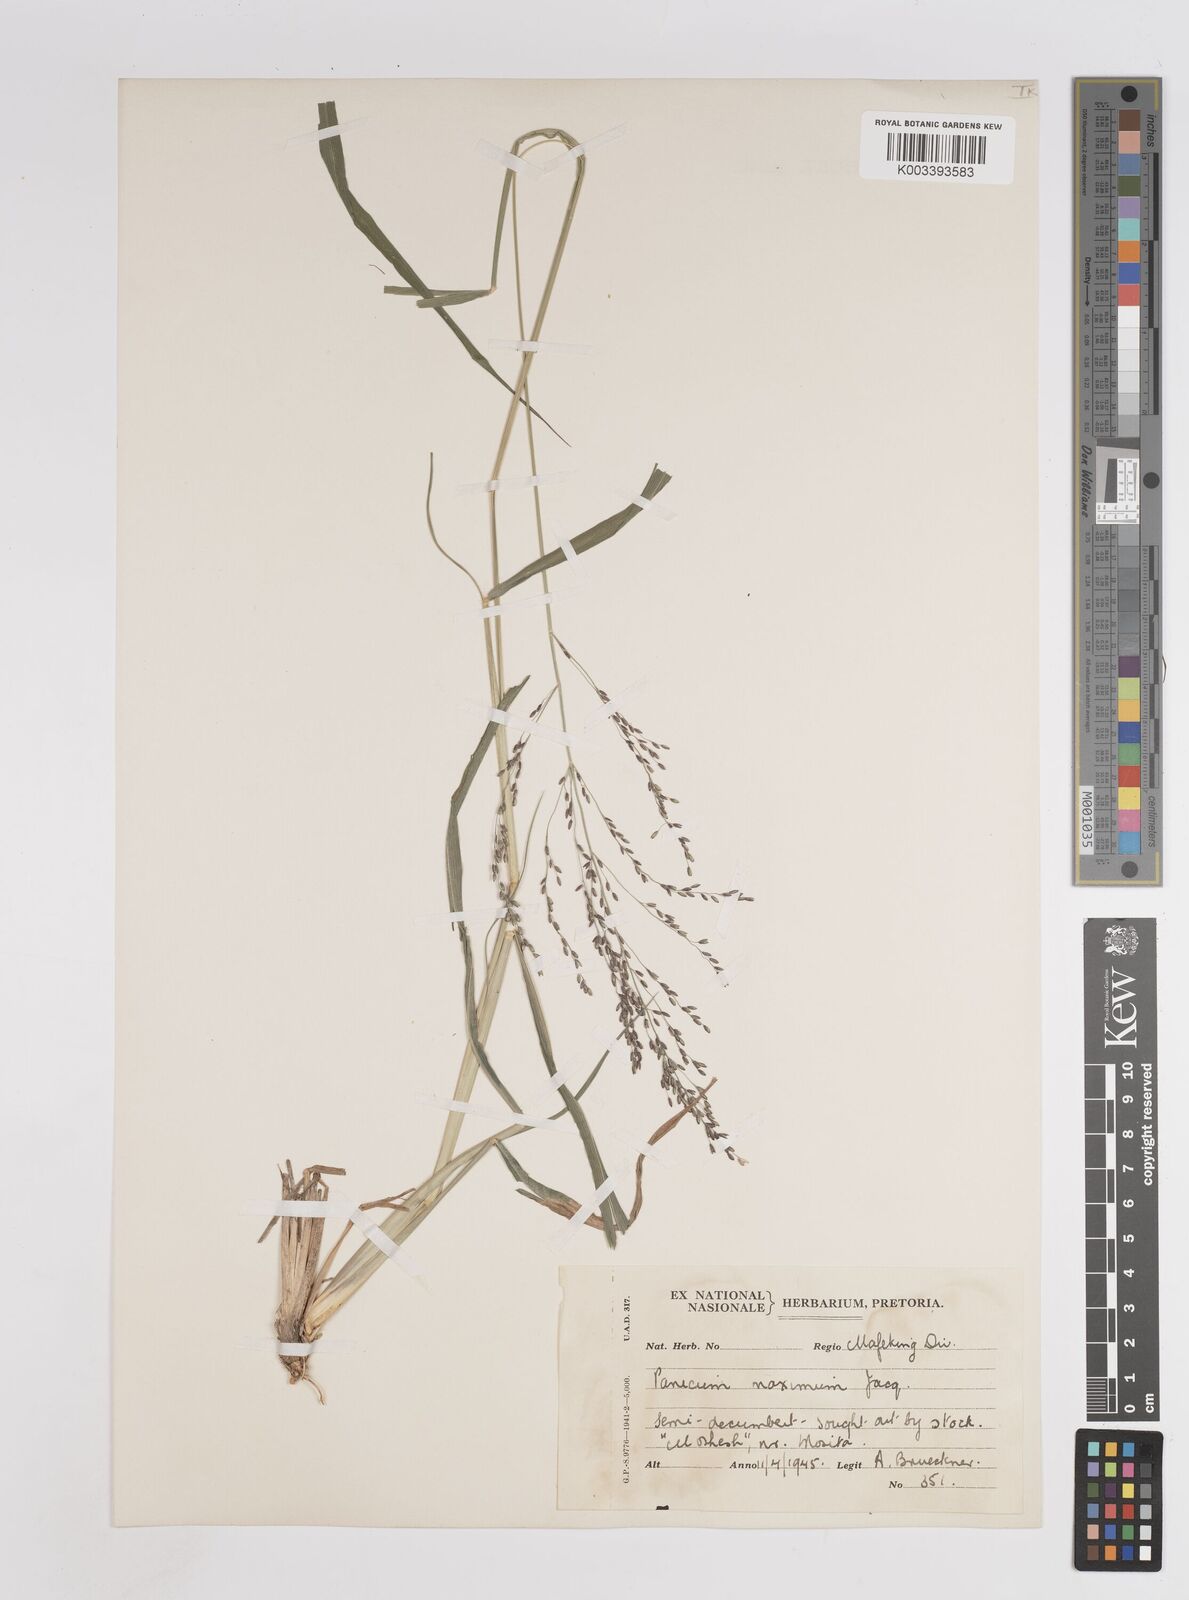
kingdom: Plantae
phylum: Tracheophyta
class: Liliopsida
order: Poales
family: Poaceae
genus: Megathyrsus
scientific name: Megathyrsus maximus
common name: Guineagrass
